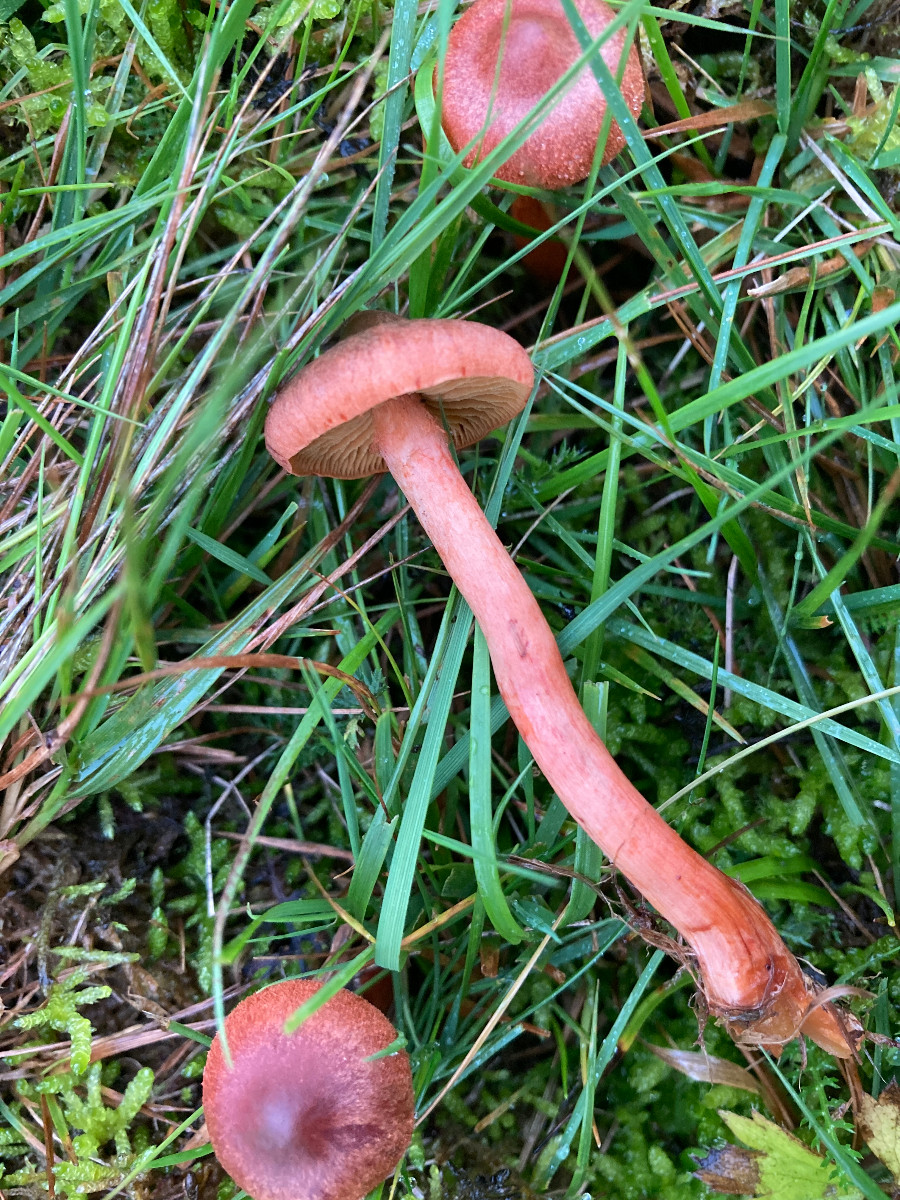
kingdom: Fungi
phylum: Basidiomycota
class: Agaricomycetes
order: Agaricales
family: Cortinariaceae
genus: Cortinarius
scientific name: Cortinarius uliginosus
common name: mose-slørhat
